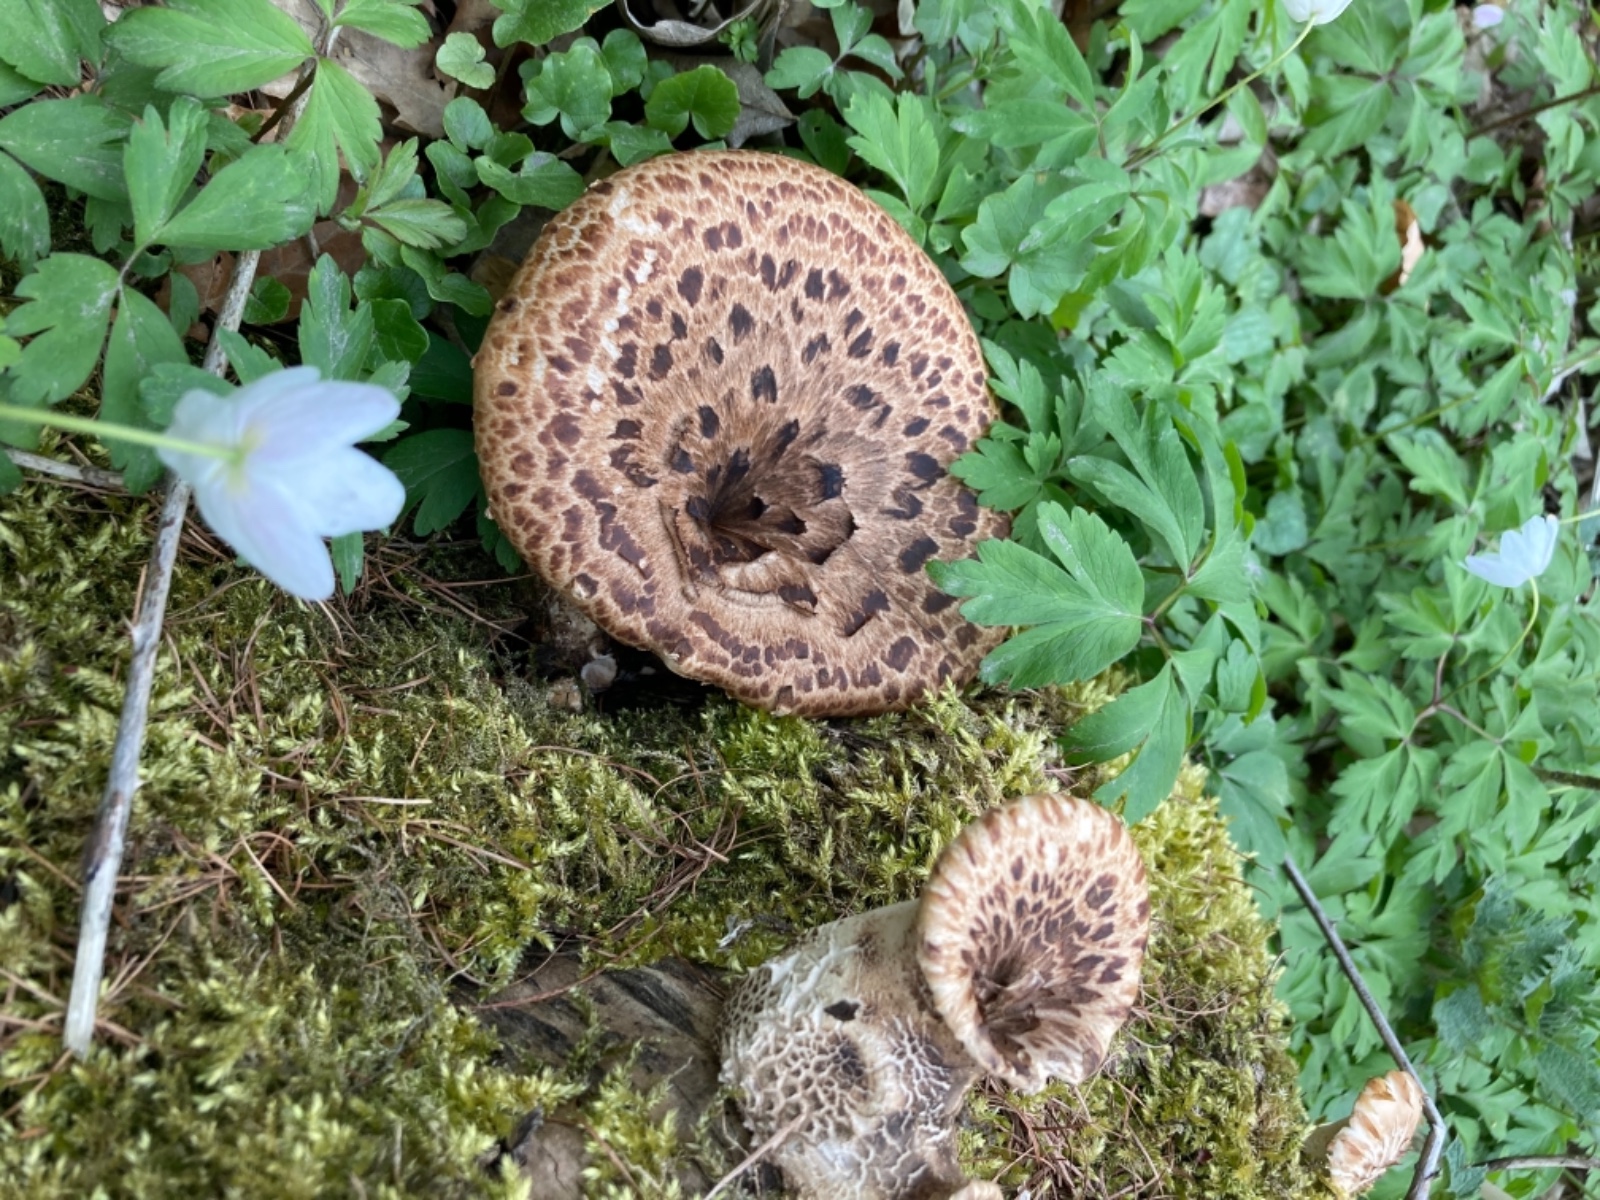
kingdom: Fungi
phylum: Basidiomycota
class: Agaricomycetes
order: Polyporales
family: Polyporaceae
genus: Cerioporus
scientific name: Cerioporus squamosus
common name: skællet stilkporesvamp
